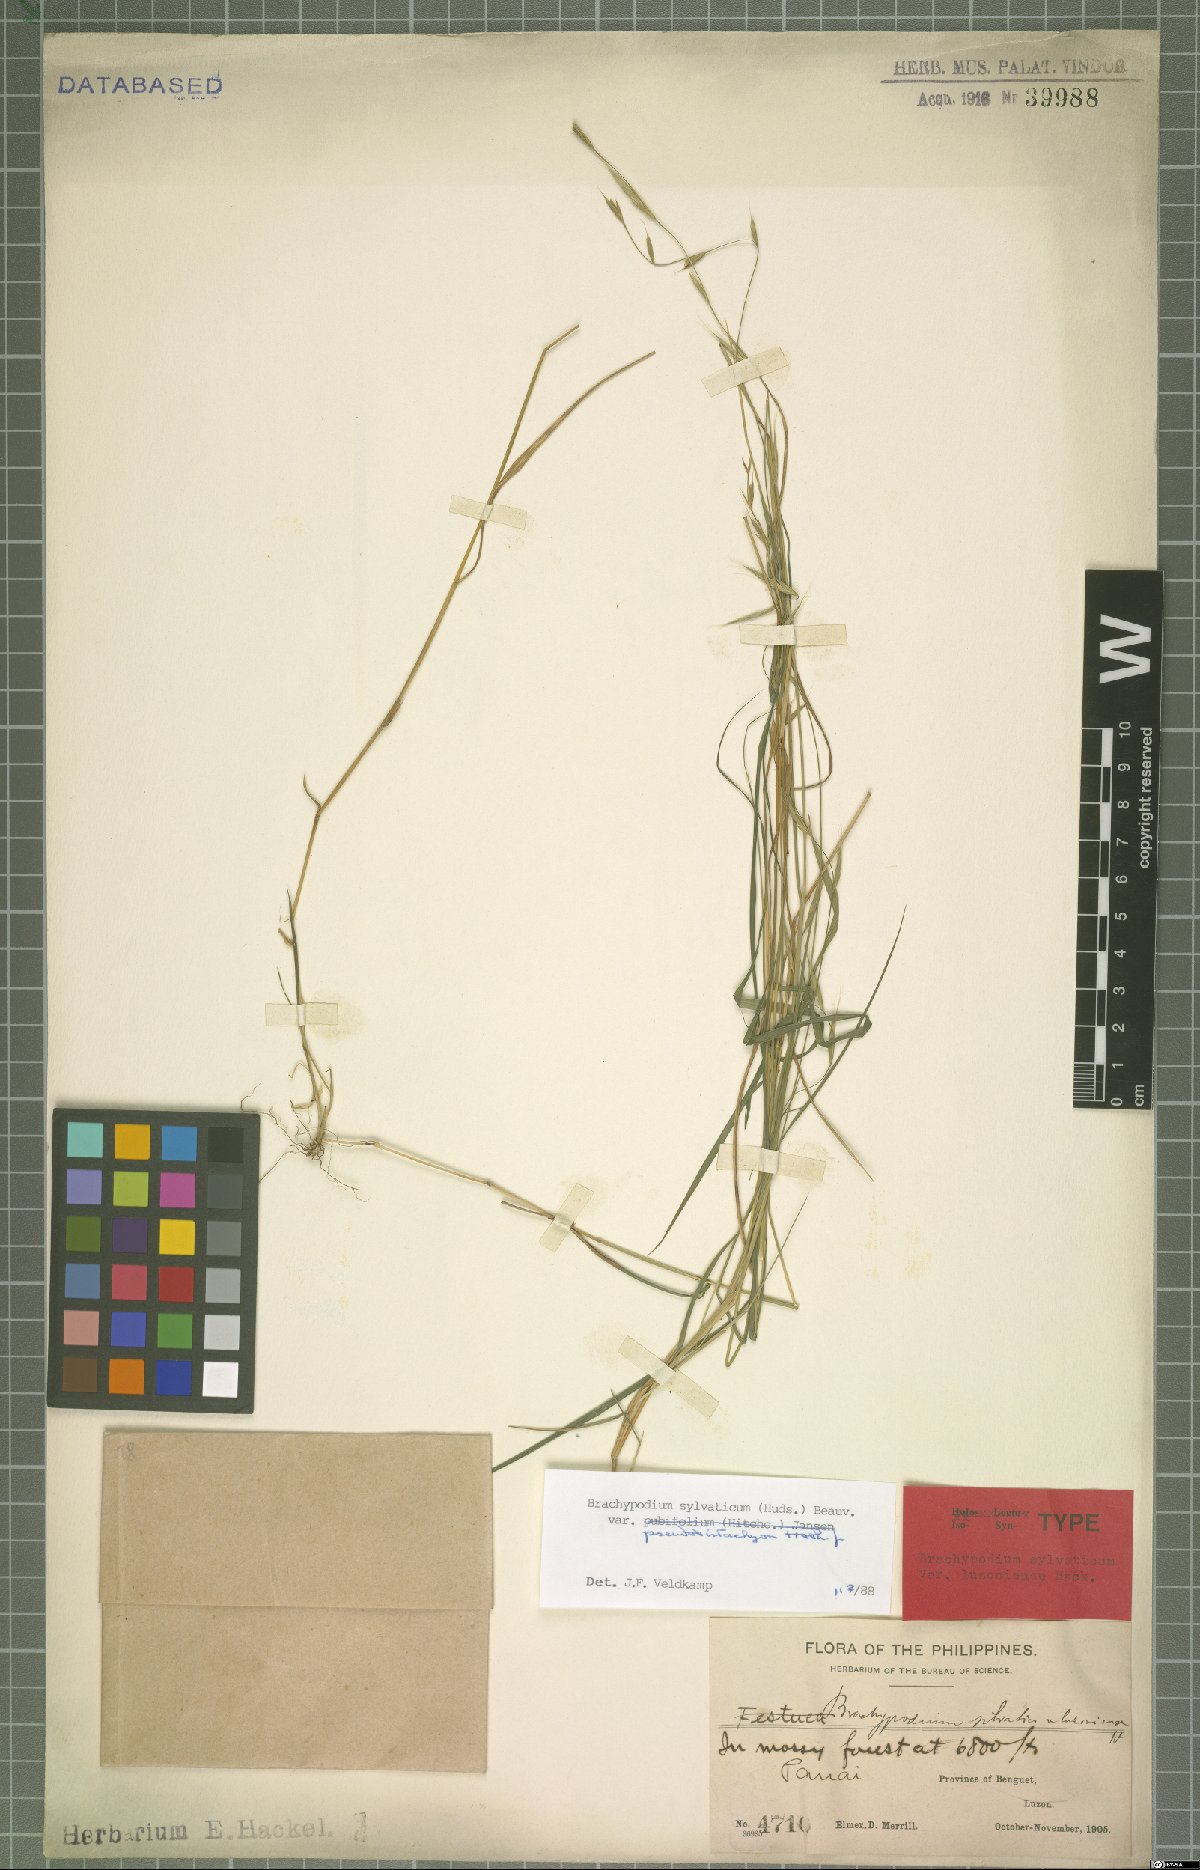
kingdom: Plantae
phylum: Tracheophyta
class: Liliopsida
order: Poales
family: Poaceae
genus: Brachypodium
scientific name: Brachypodium sylvaticum
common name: False-brome
